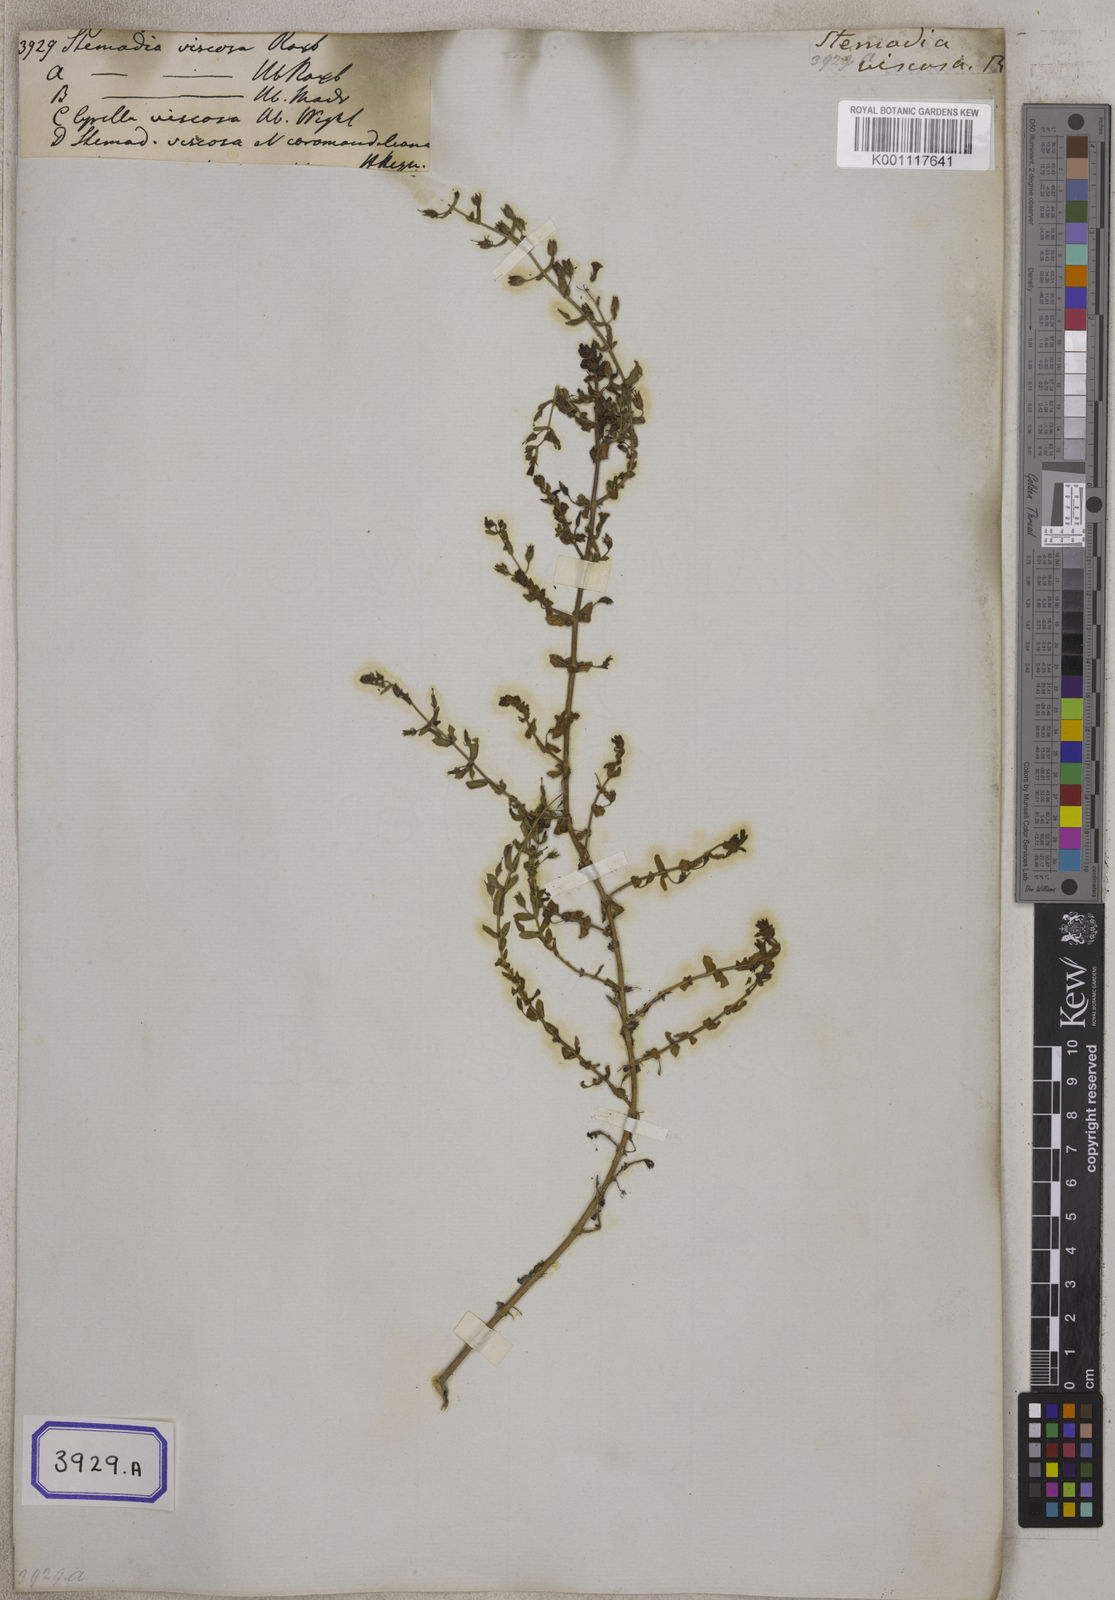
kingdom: Plantae
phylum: Tracheophyta
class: Magnoliopsida
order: Lamiales
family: Plantaginaceae
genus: Stemodia
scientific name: Stemodia viscosa
